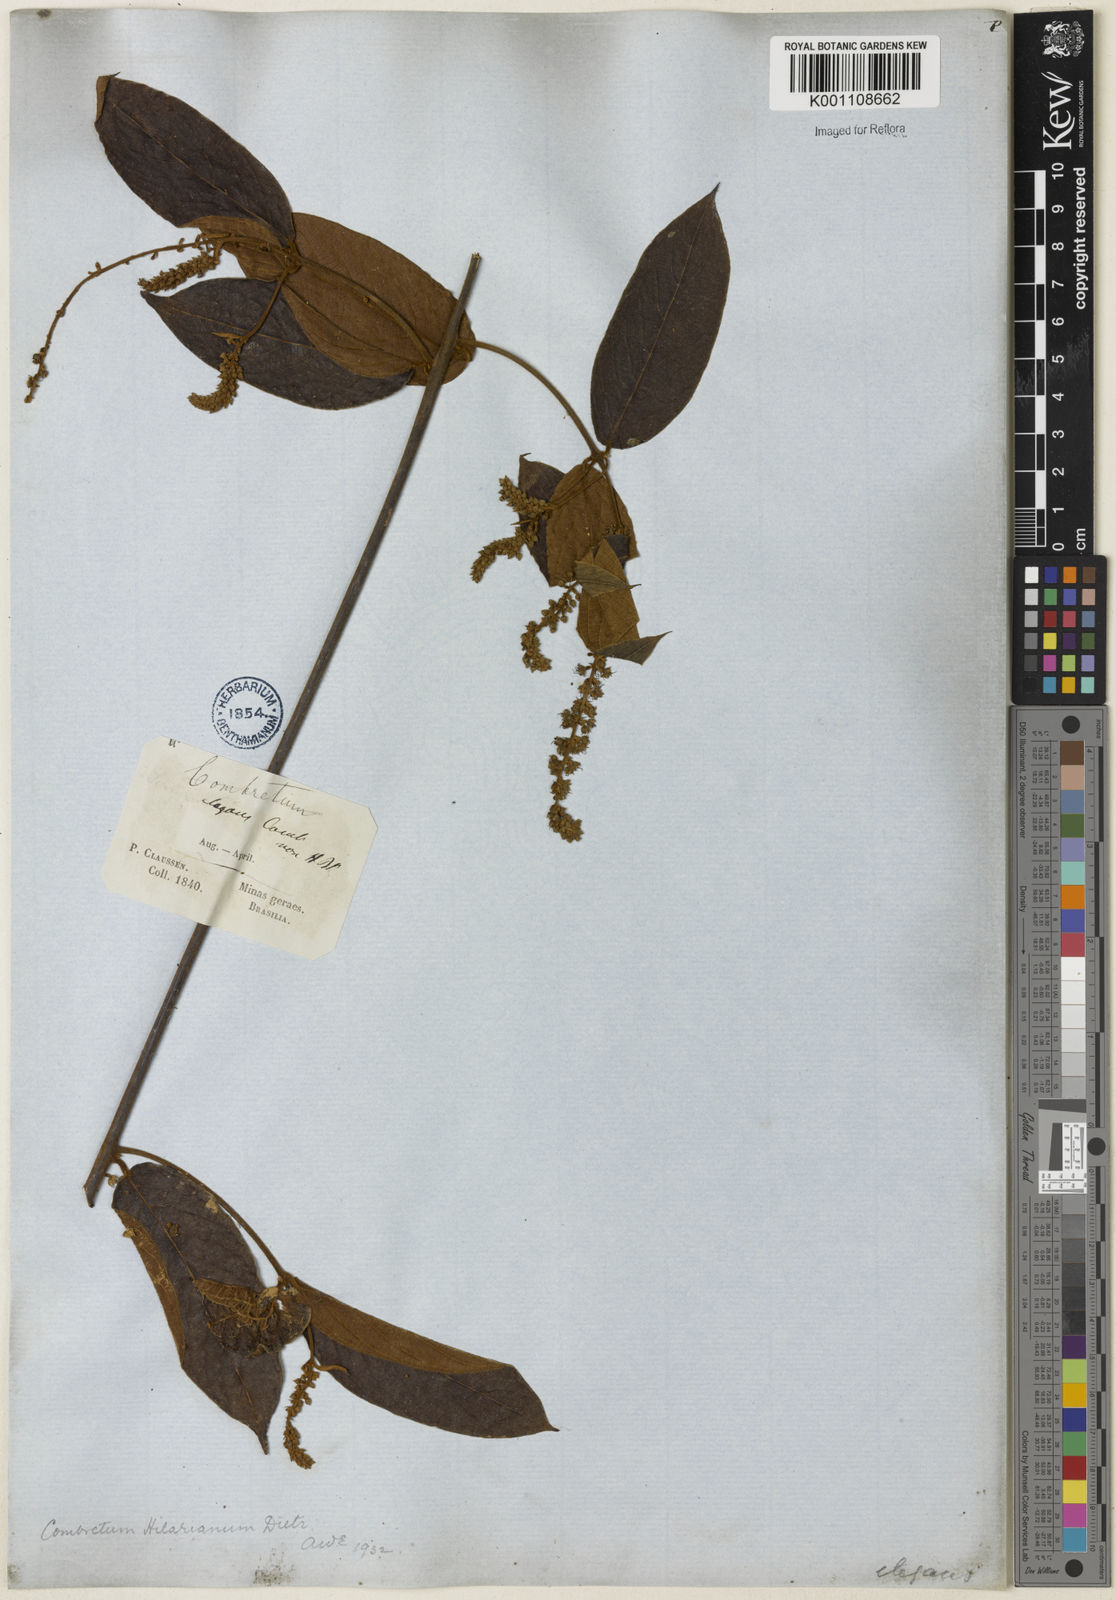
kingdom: Plantae
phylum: Tracheophyta
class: Magnoliopsida
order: Myrtales
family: Combretaceae
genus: Combretum
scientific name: Combretum hilarianum
